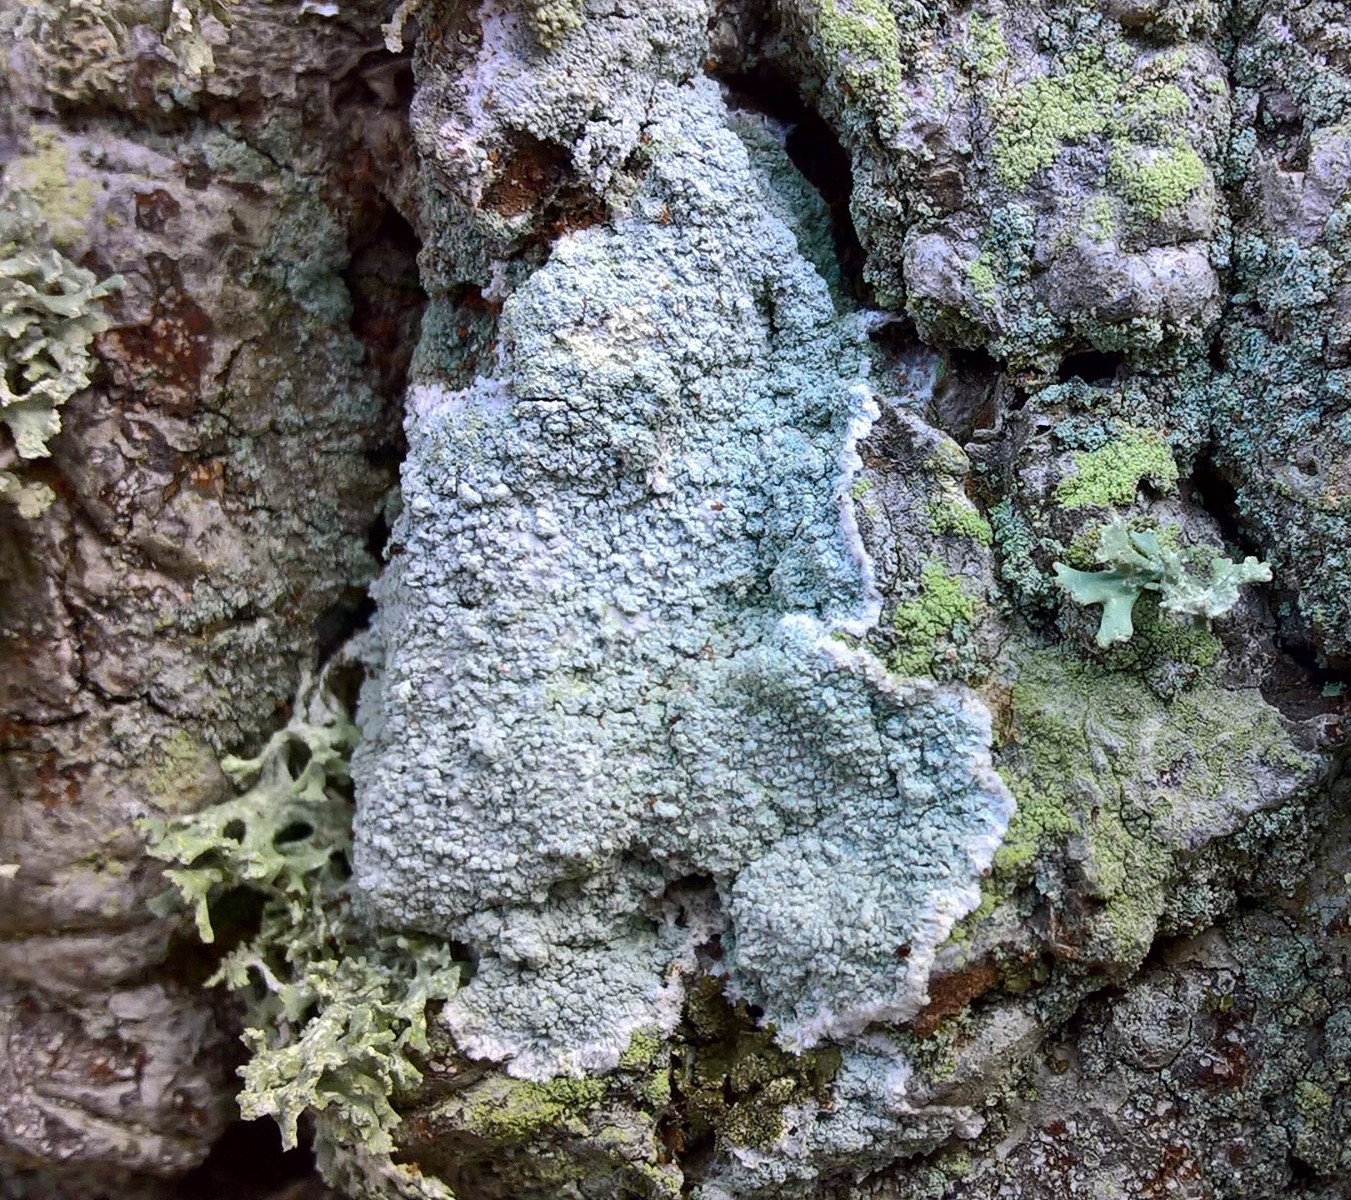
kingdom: Fungi
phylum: Ascomycota
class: Lecanoromycetes
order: Lecanorales
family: Haematommataceae
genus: Haematomma
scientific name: Haematomma ochroleucum
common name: gul trådkantlav
